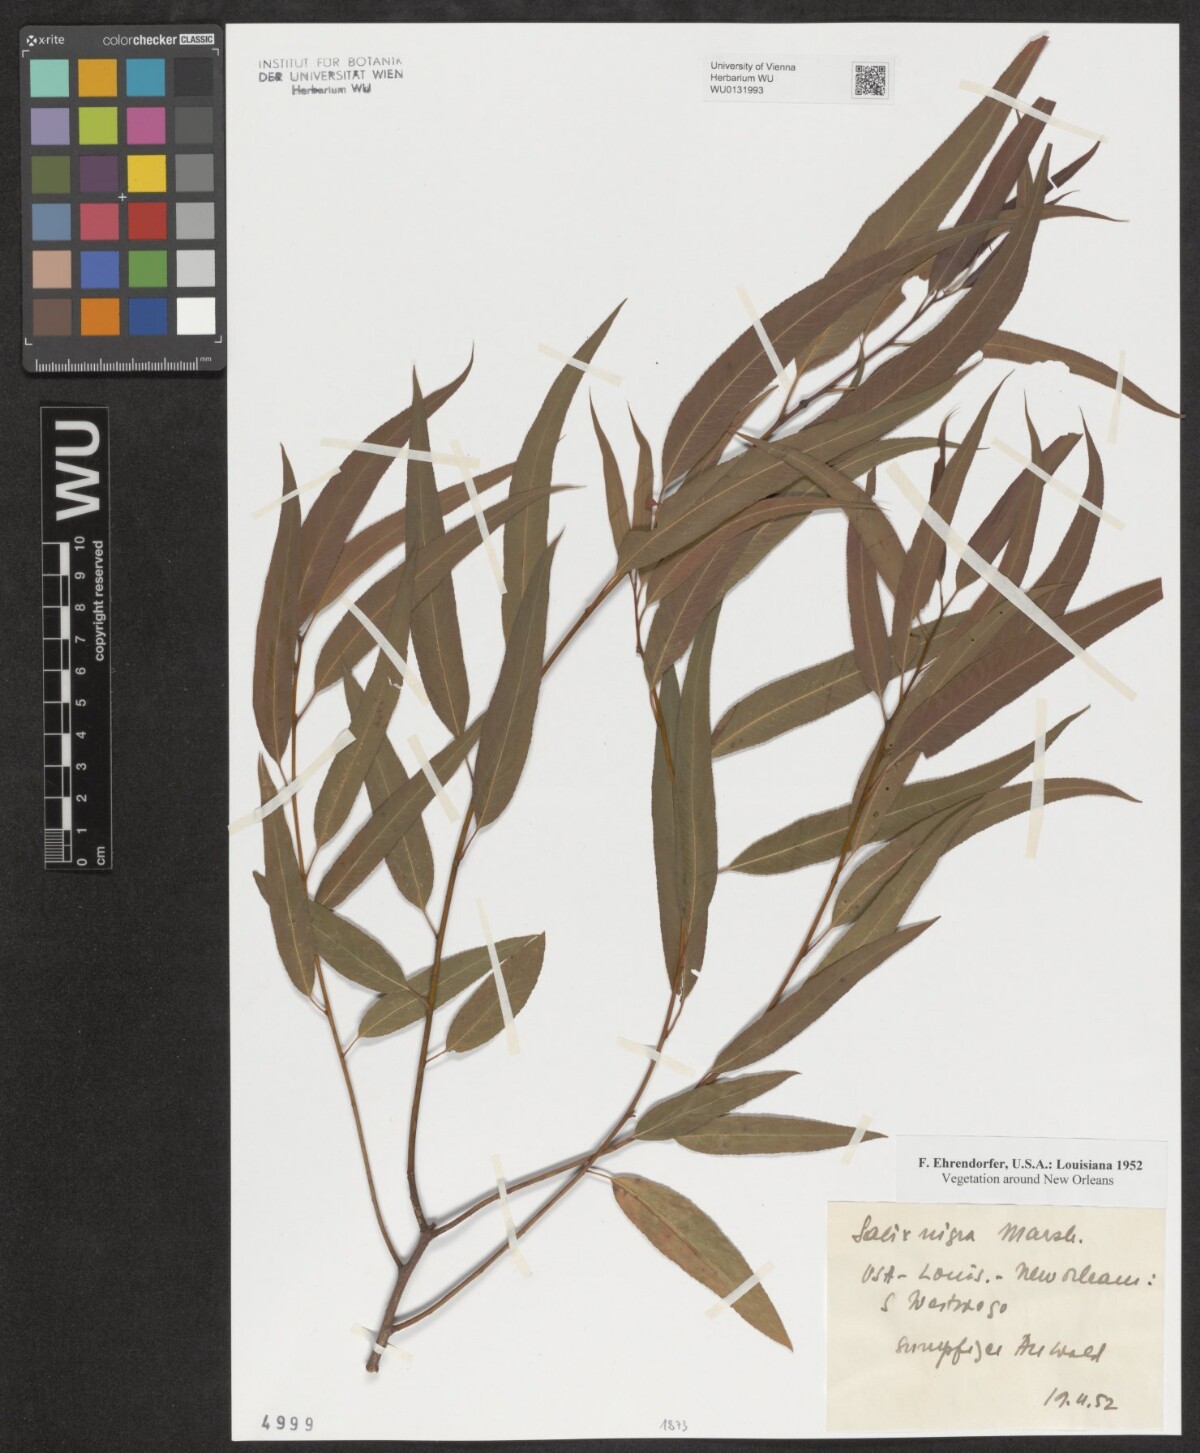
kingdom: Plantae
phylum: Tracheophyta
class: Magnoliopsida
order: Malpighiales
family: Salicaceae
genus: Salix
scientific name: Salix nigra
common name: Black willow
